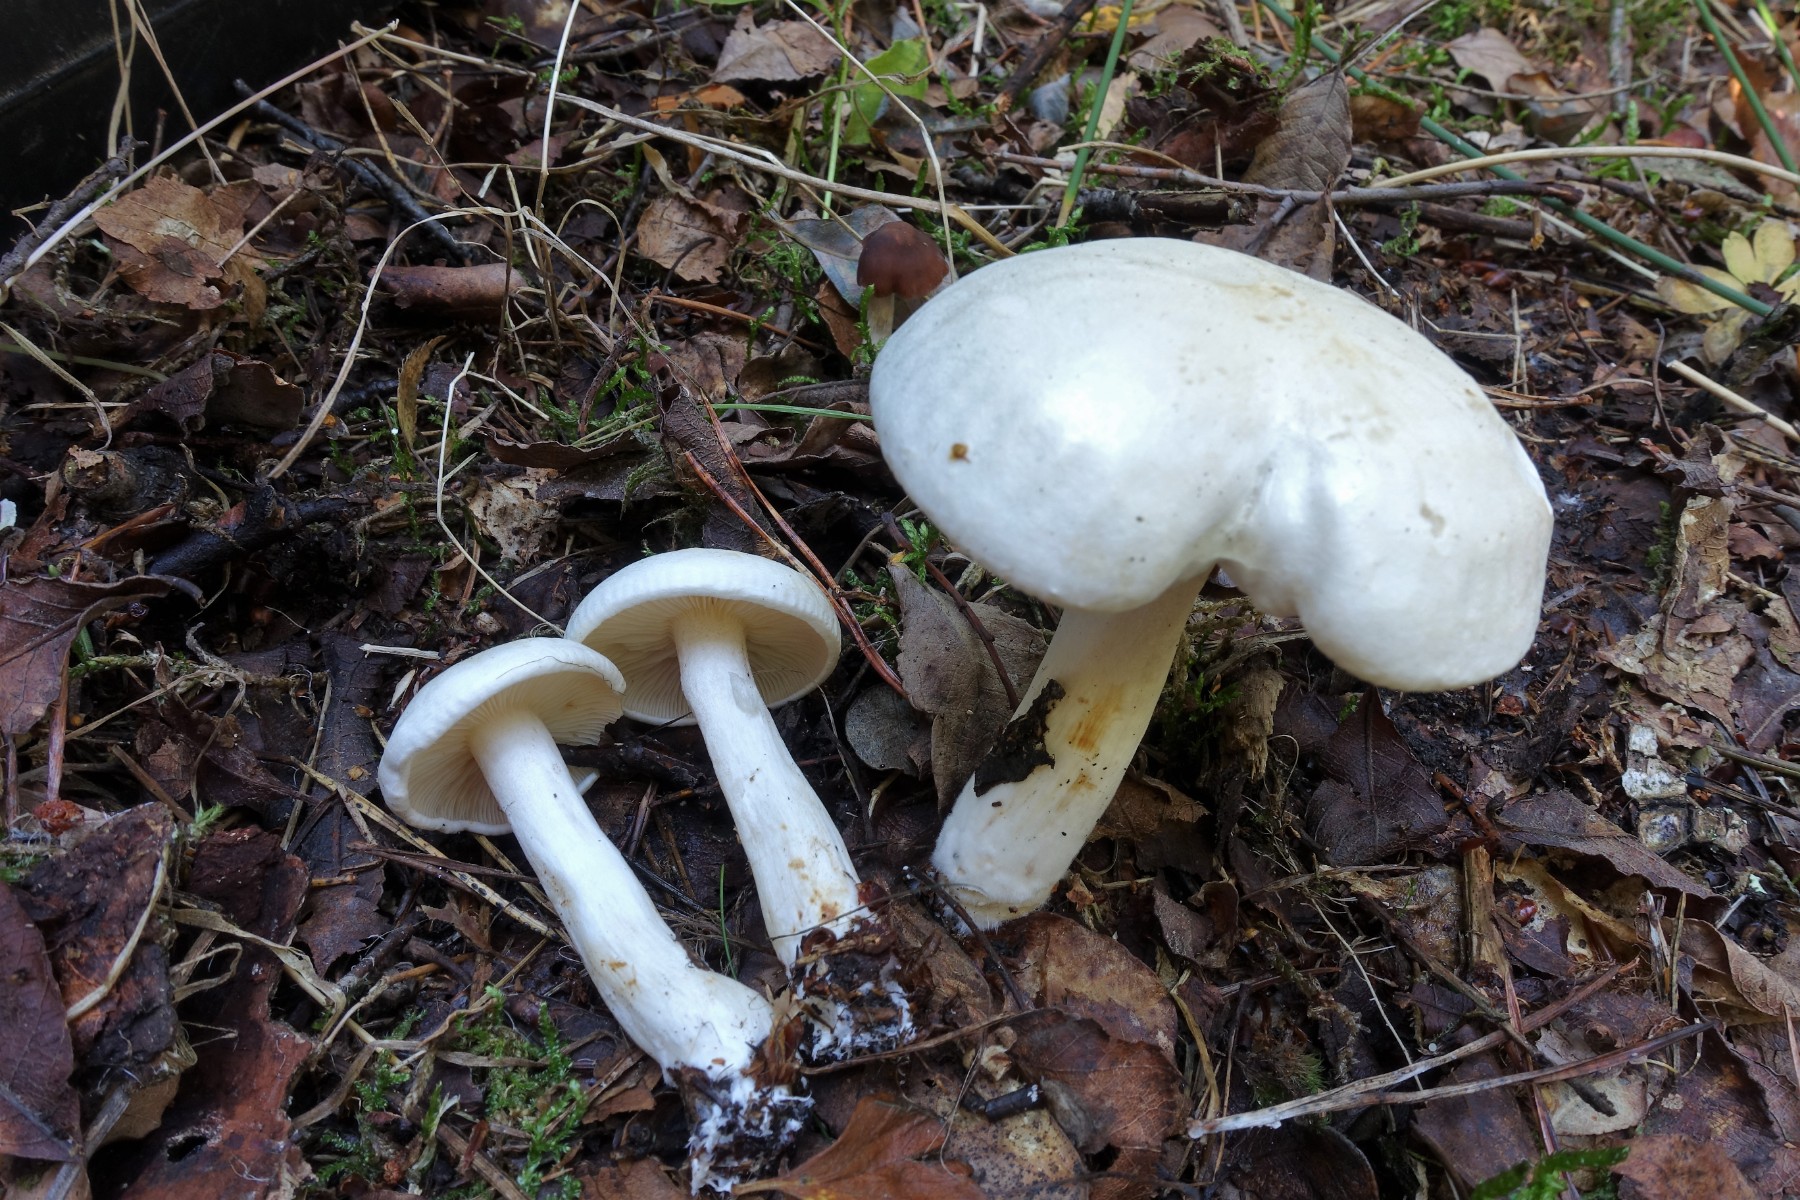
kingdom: Fungi
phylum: Basidiomycota
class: Agaricomycetes
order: Agaricales
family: Tricholomataceae
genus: Tricholoma
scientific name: Tricholoma stiparophyllum
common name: hvid ridderhat
